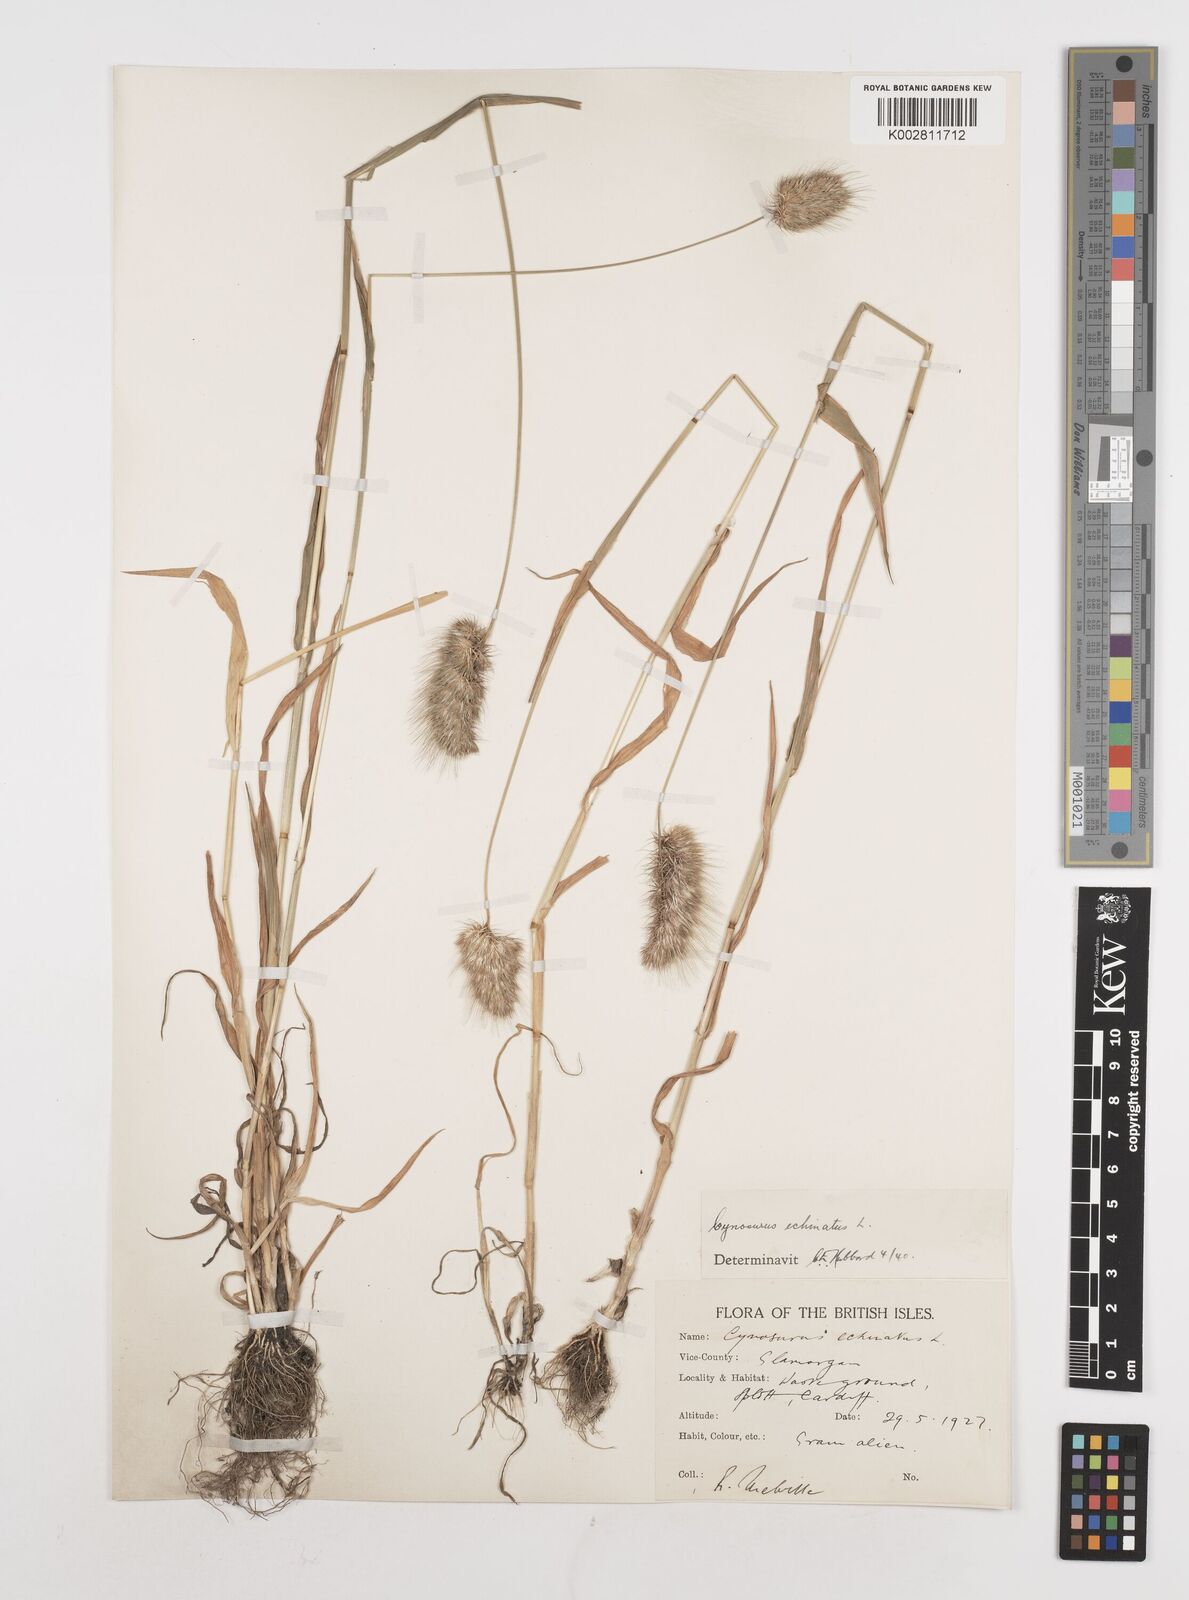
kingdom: Plantae
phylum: Tracheophyta
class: Liliopsida
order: Poales
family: Poaceae
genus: Cynosurus
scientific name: Cynosurus echinatus
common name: Rough dog's-tail
